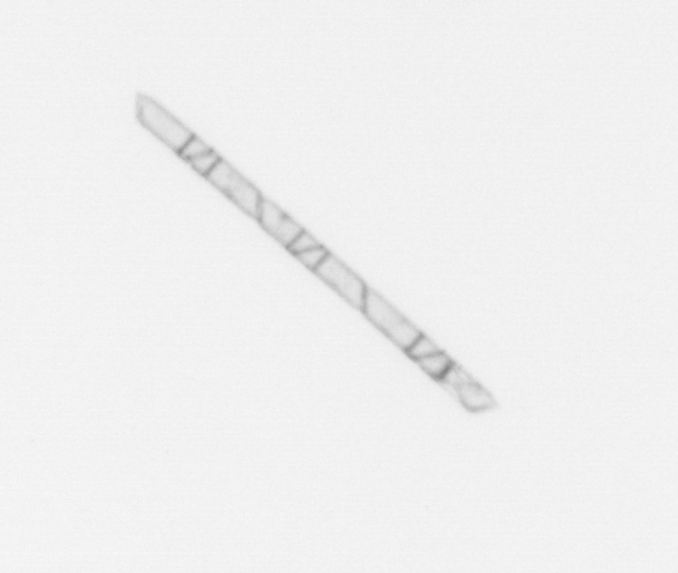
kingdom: Chromista
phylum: Ochrophyta
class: Bacillariophyceae
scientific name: Bacillariophyceae
